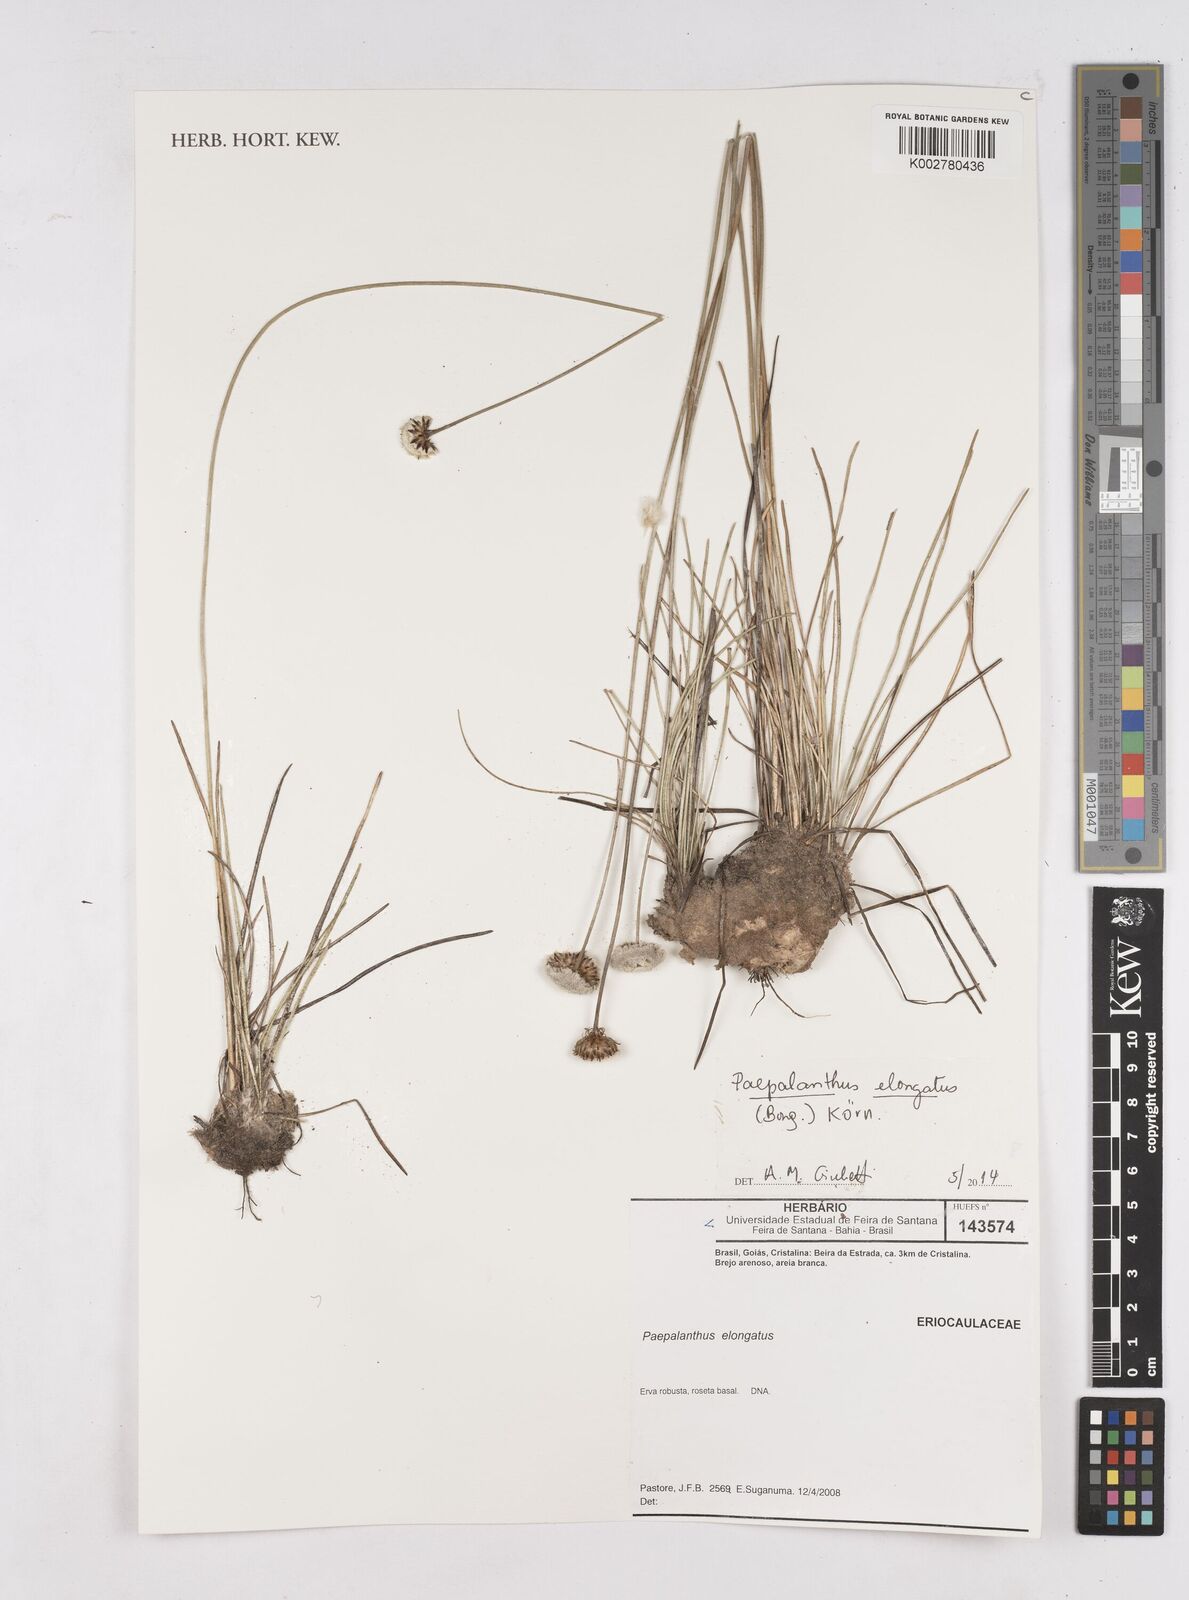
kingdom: Plantae
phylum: Tracheophyta
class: Liliopsida
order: Poales
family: Eriocaulaceae
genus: Paepalanthus
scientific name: Paepalanthus elongatus
